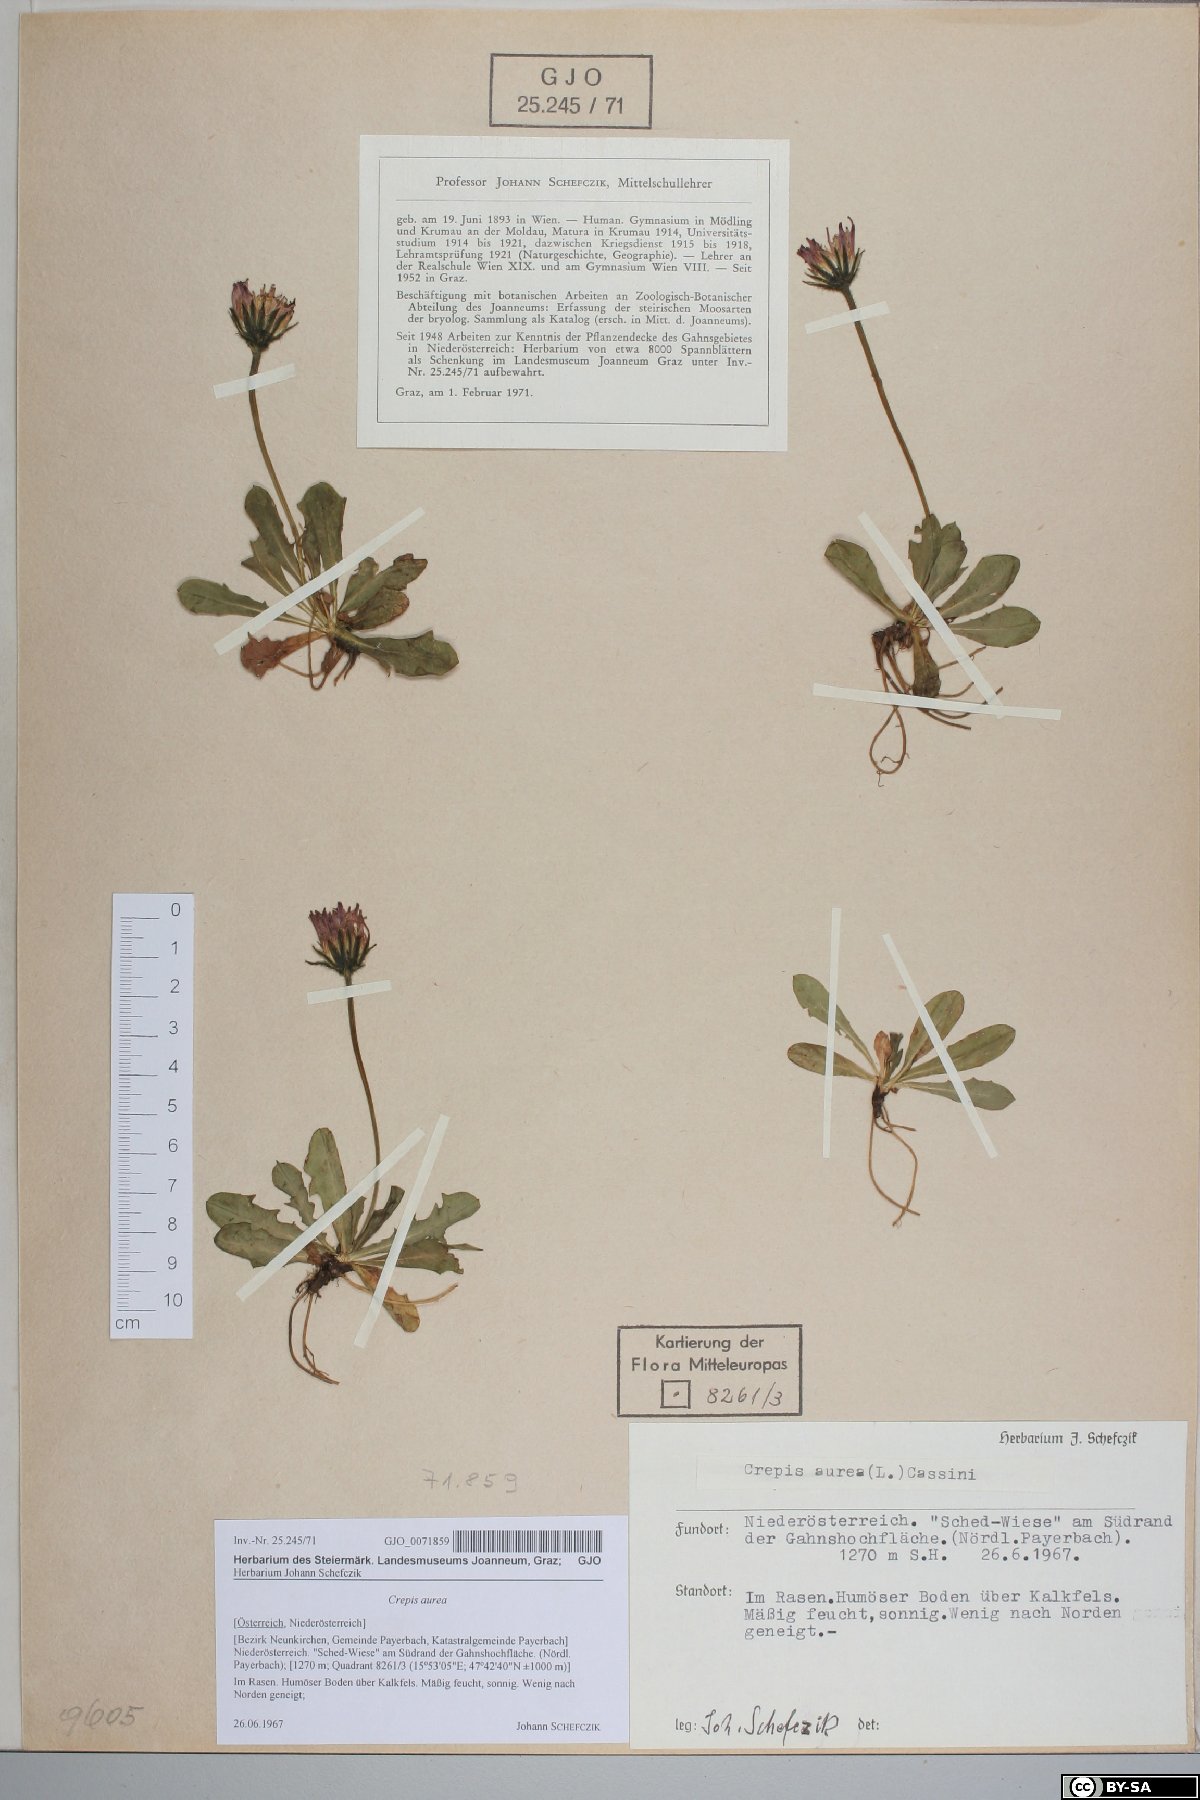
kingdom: Plantae
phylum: Tracheophyta
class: Magnoliopsida
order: Asterales
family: Asteraceae
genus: Crepis
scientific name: Crepis aurea
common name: Golden hawk's-beard
